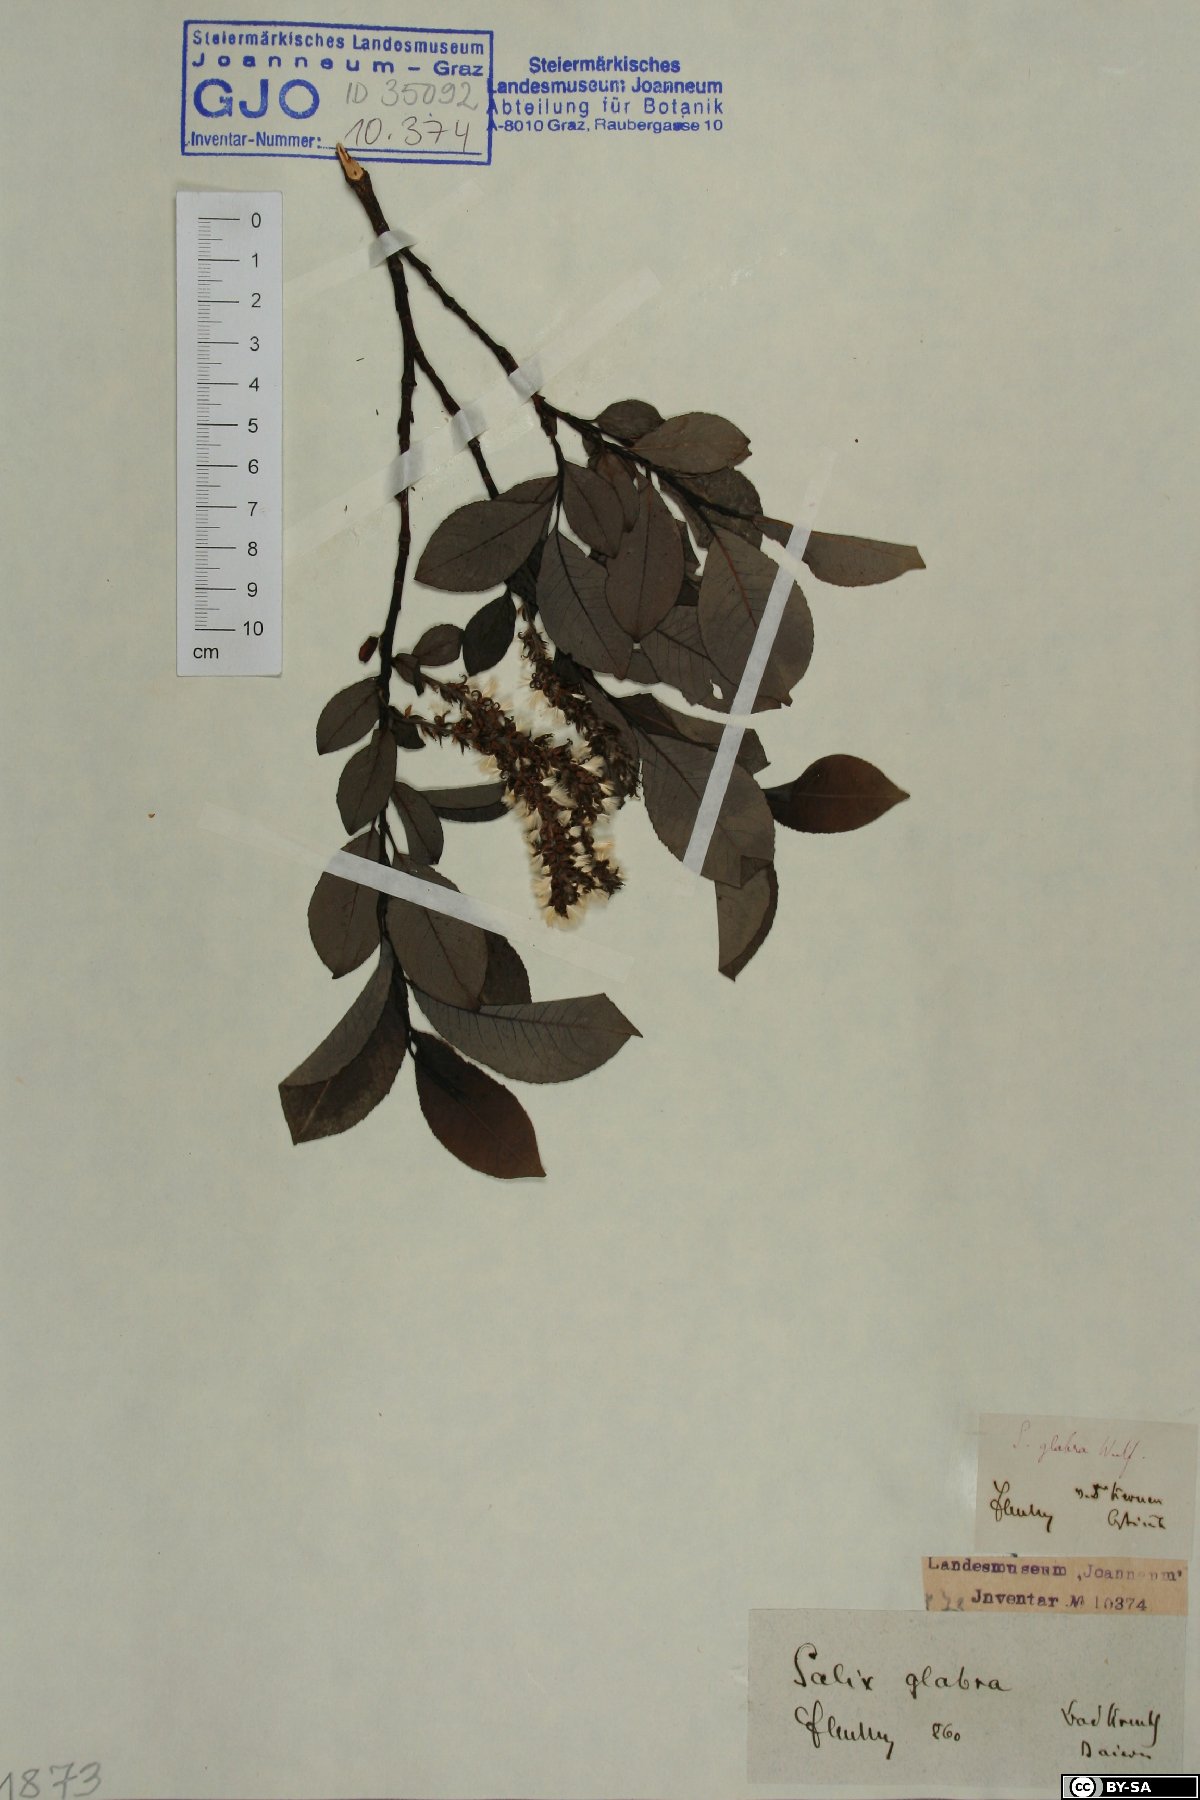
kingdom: Plantae
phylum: Tracheophyta
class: Magnoliopsida
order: Malpighiales
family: Salicaceae
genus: Salix
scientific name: Salix glabra
